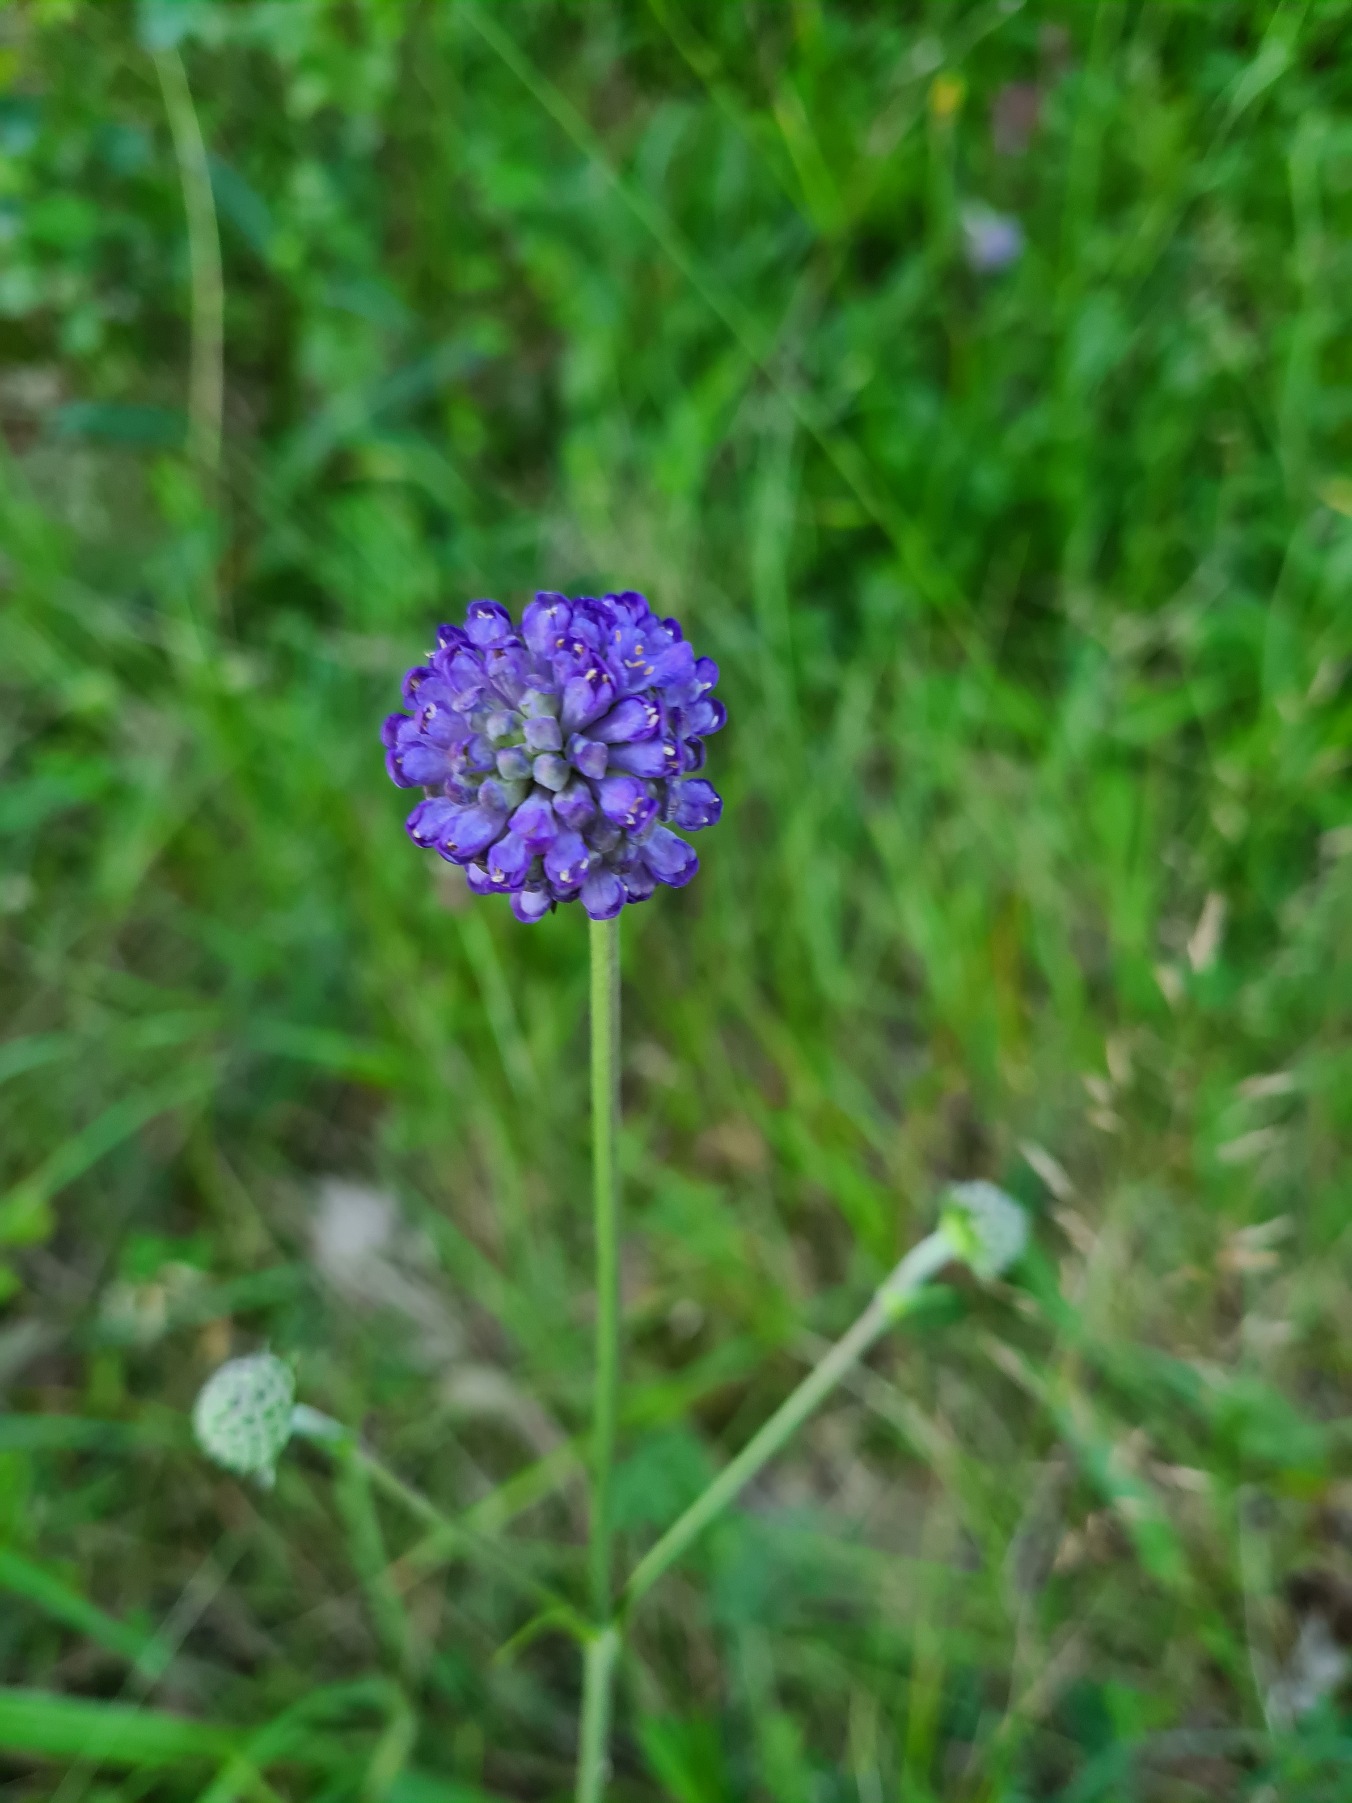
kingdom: Plantae
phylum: Tracheophyta
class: Magnoliopsida
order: Dipsacales
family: Caprifoliaceae
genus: Succisa
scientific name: Succisa pratensis
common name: Djævelsbid
